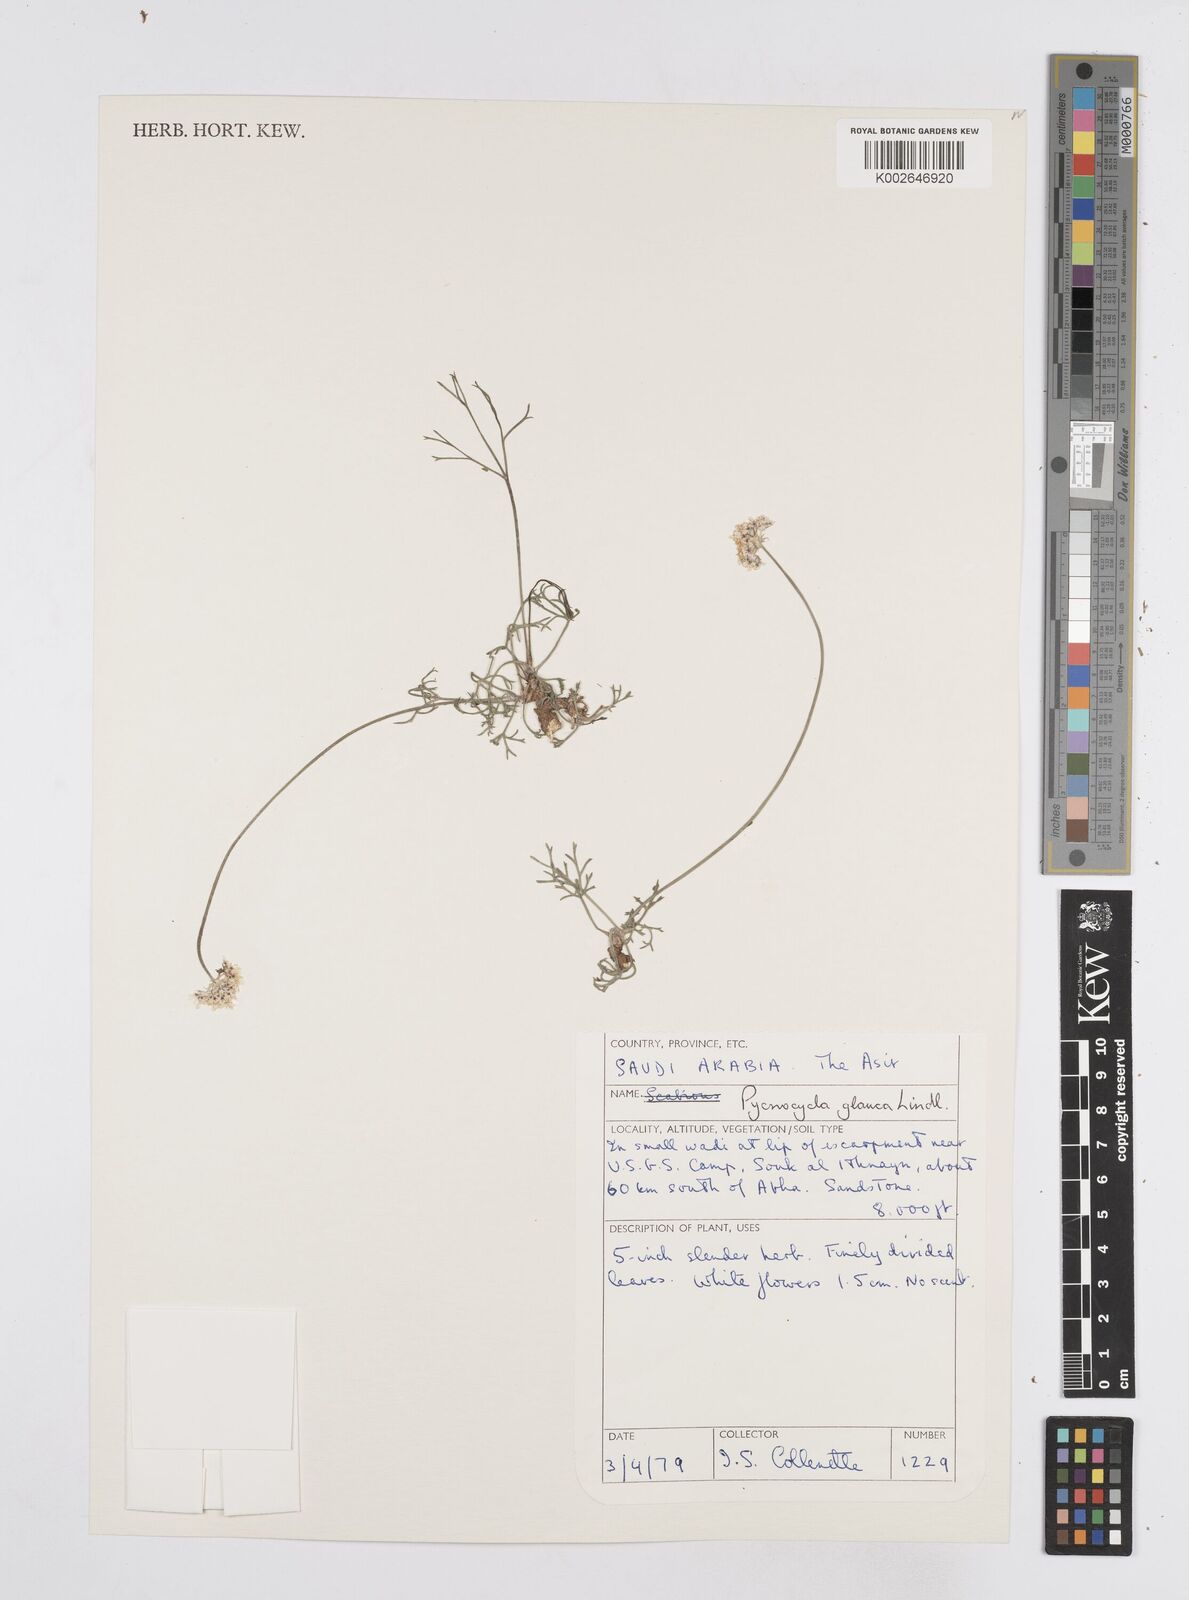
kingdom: Plantae
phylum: Tracheophyta
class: Magnoliopsida
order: Apiales
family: Apiaceae
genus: Pycnocycla
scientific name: Pycnocycla glauca
